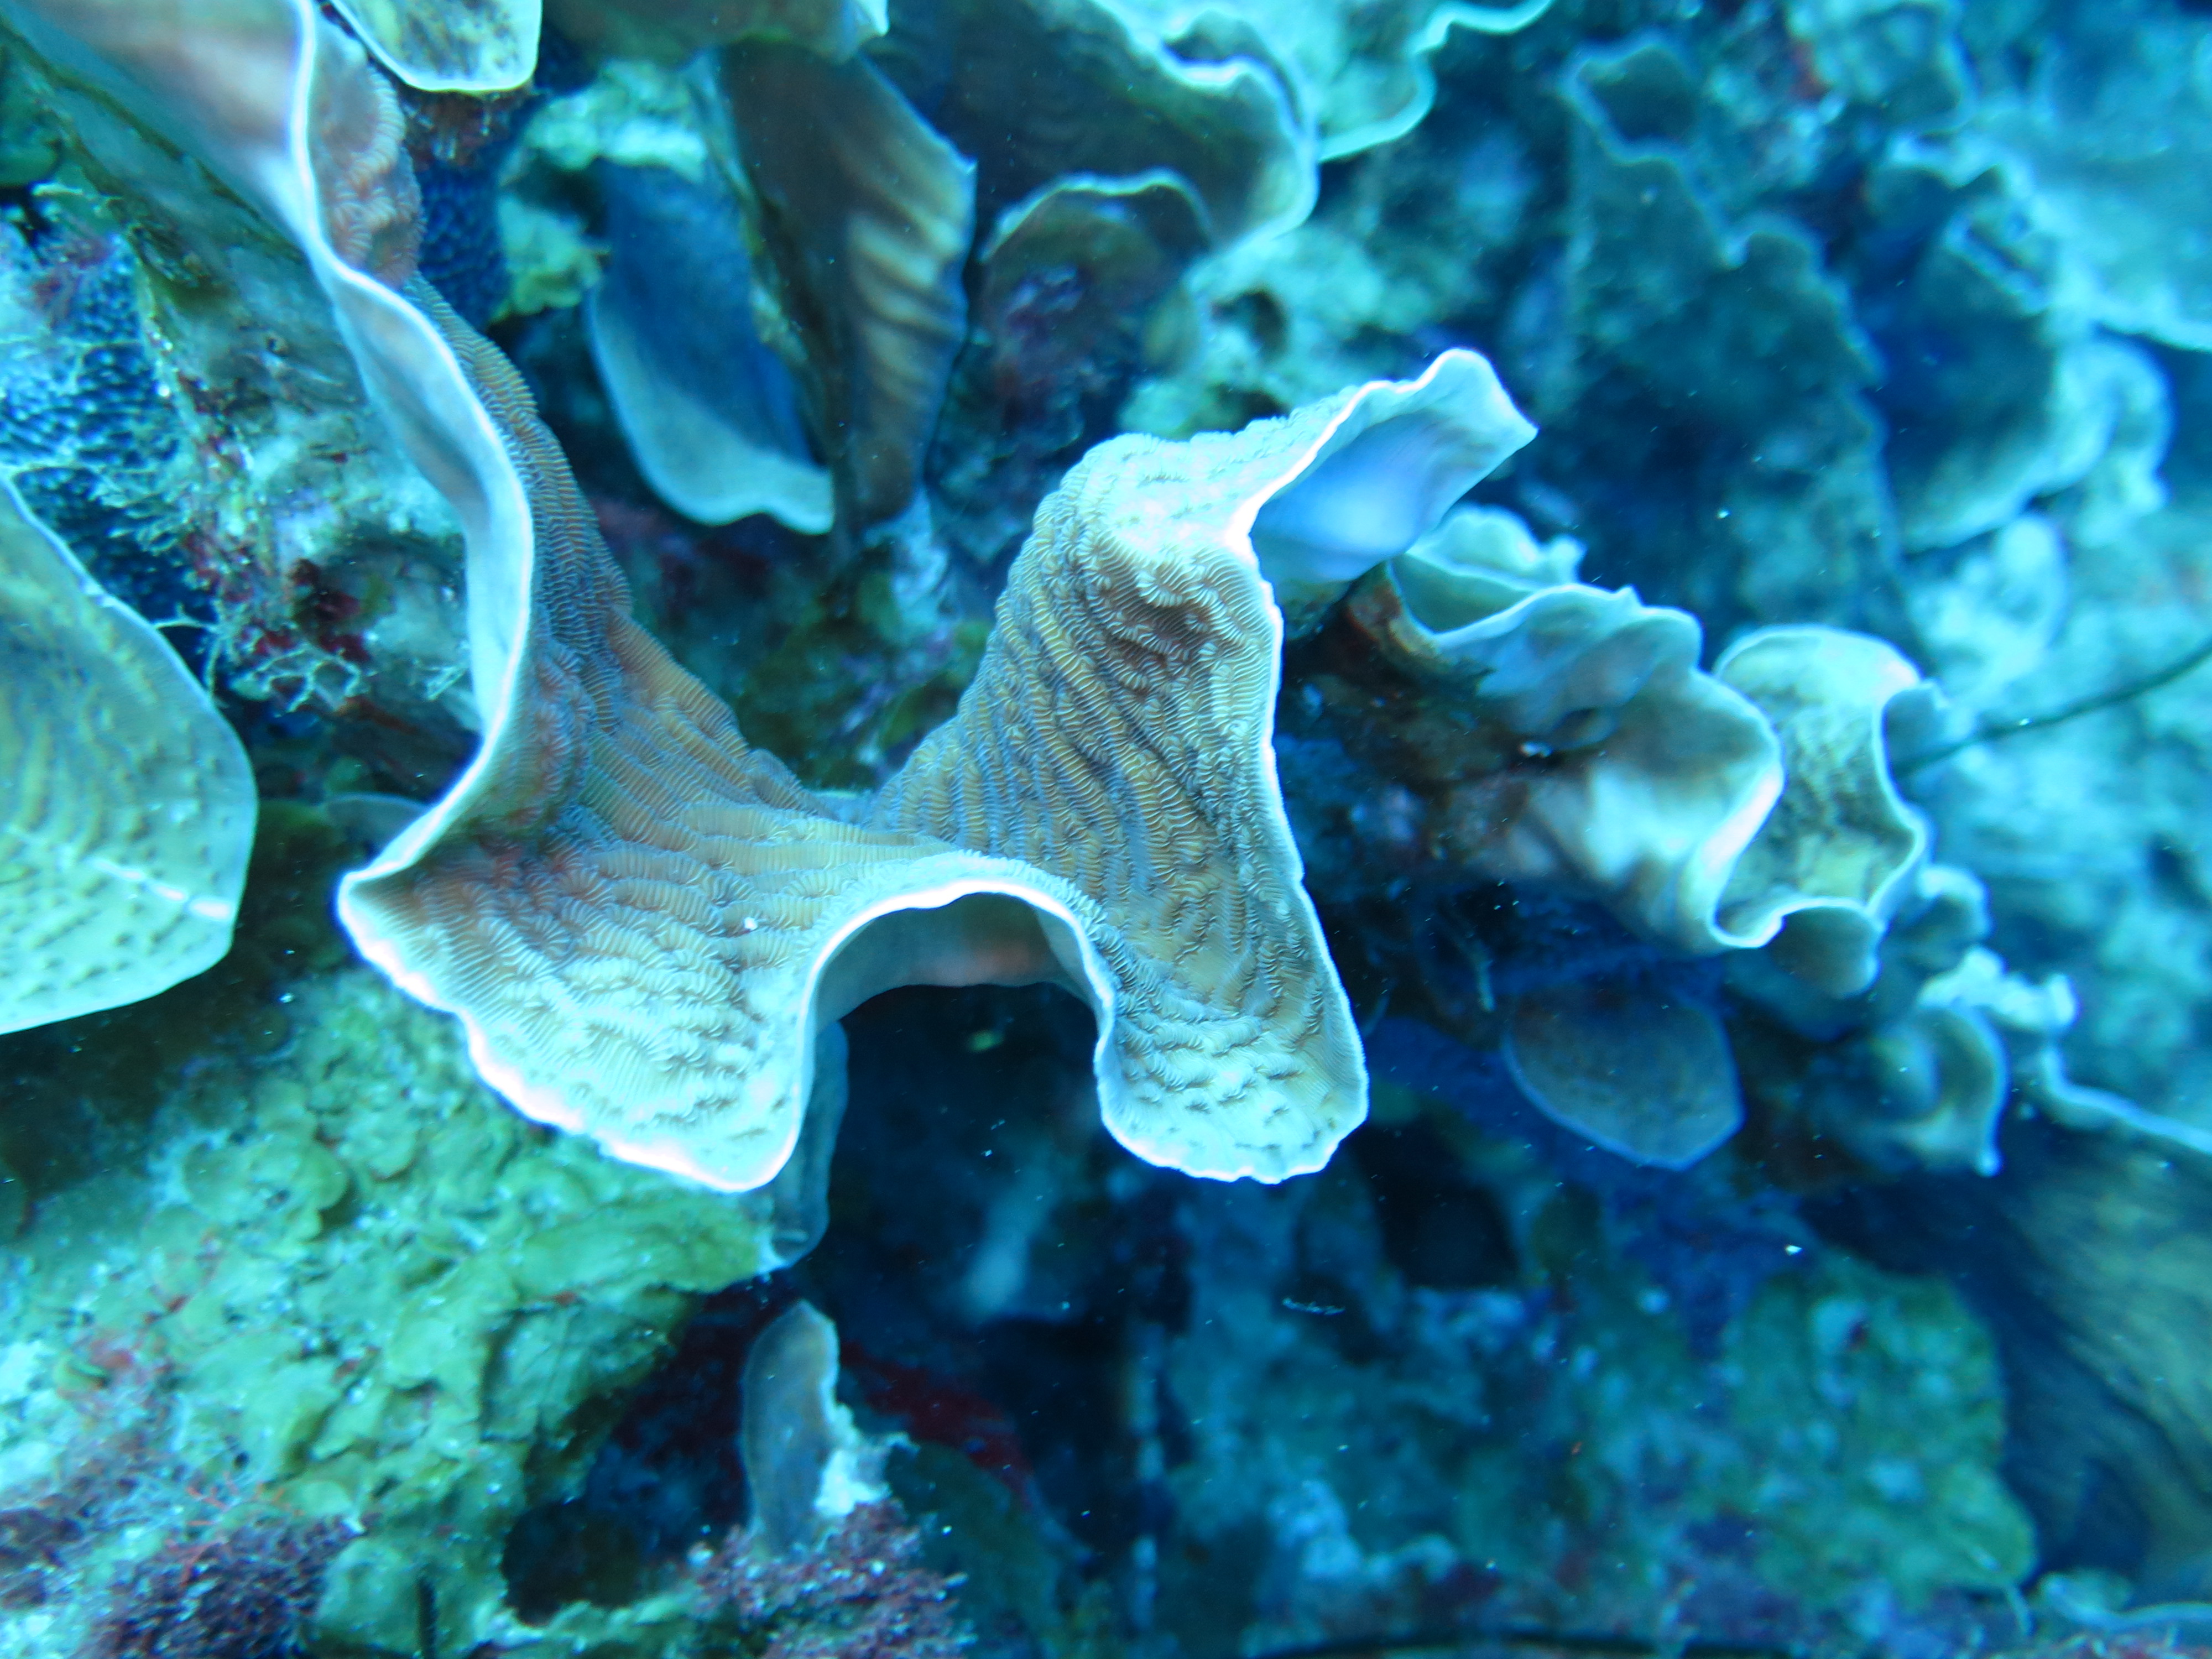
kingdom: Animalia
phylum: Cnidaria
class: Anthozoa
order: Scleractinia
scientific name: Scleractinia
